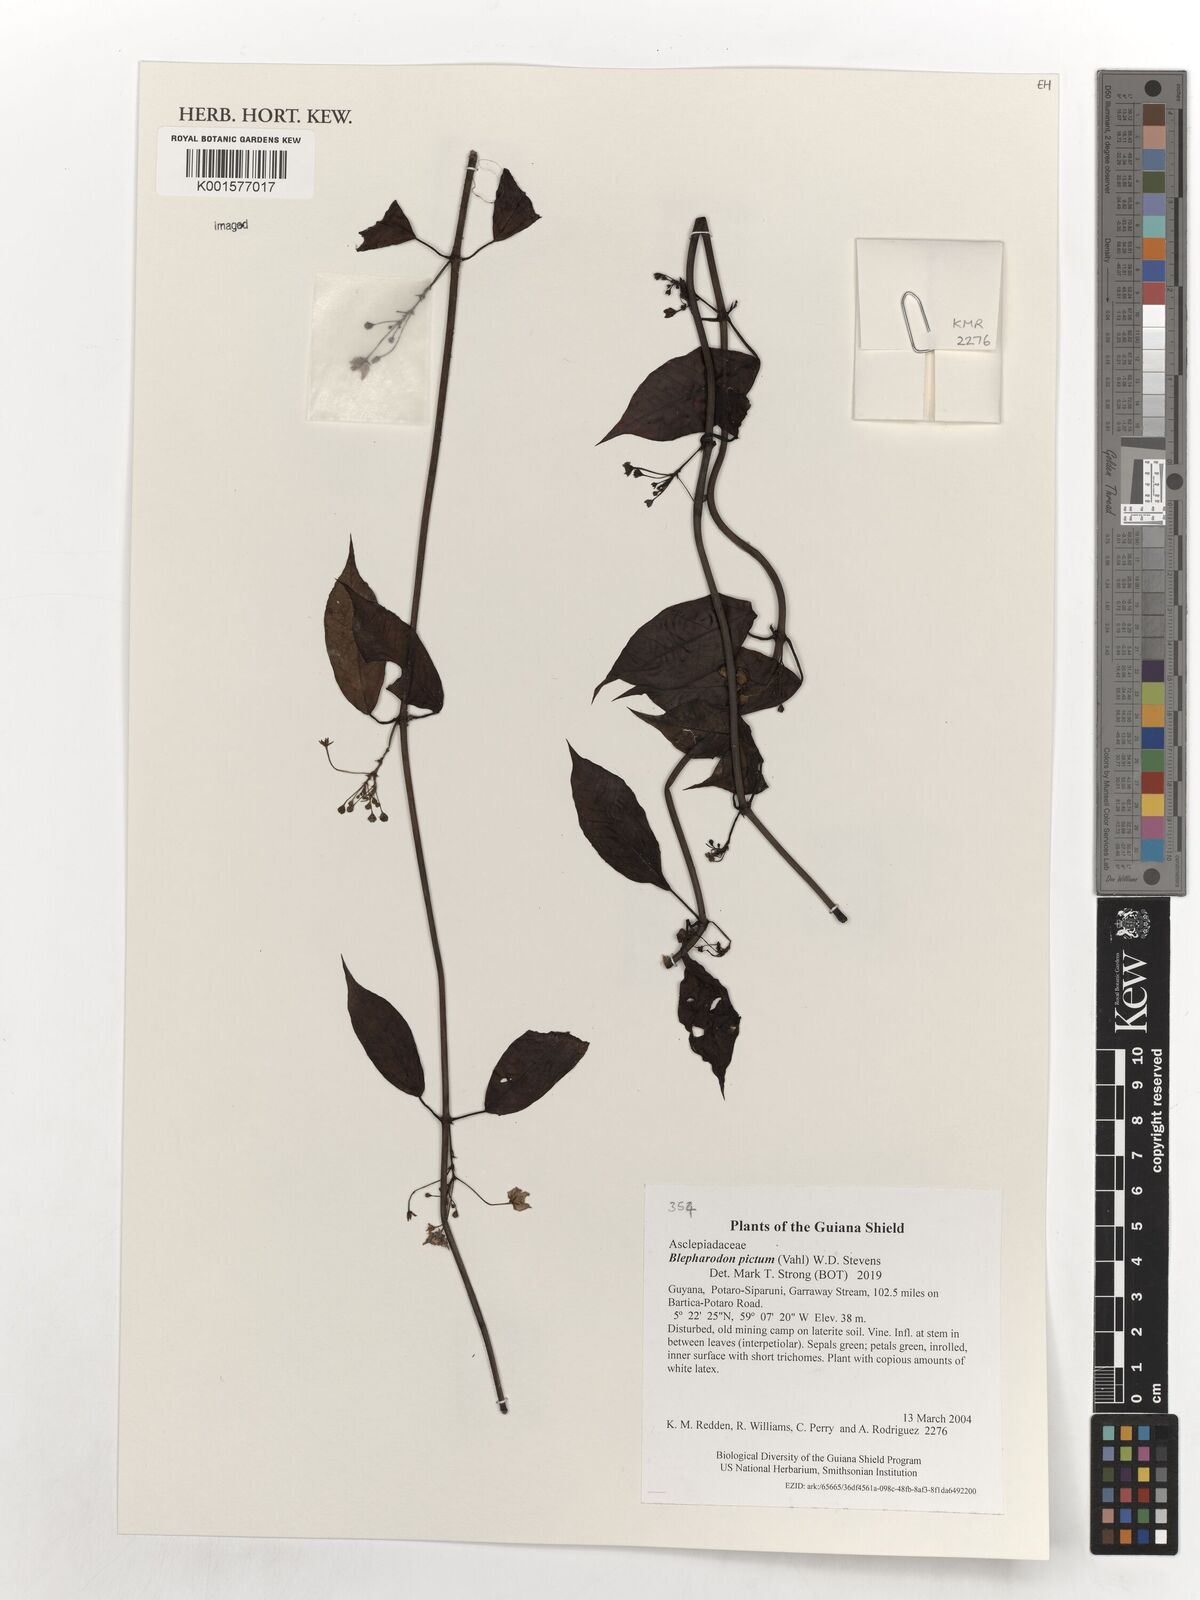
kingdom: Plantae
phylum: Tracheophyta
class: Magnoliopsida
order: Gentianales
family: Apocynaceae
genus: Blepharodon
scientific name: Blepharodon pictum
